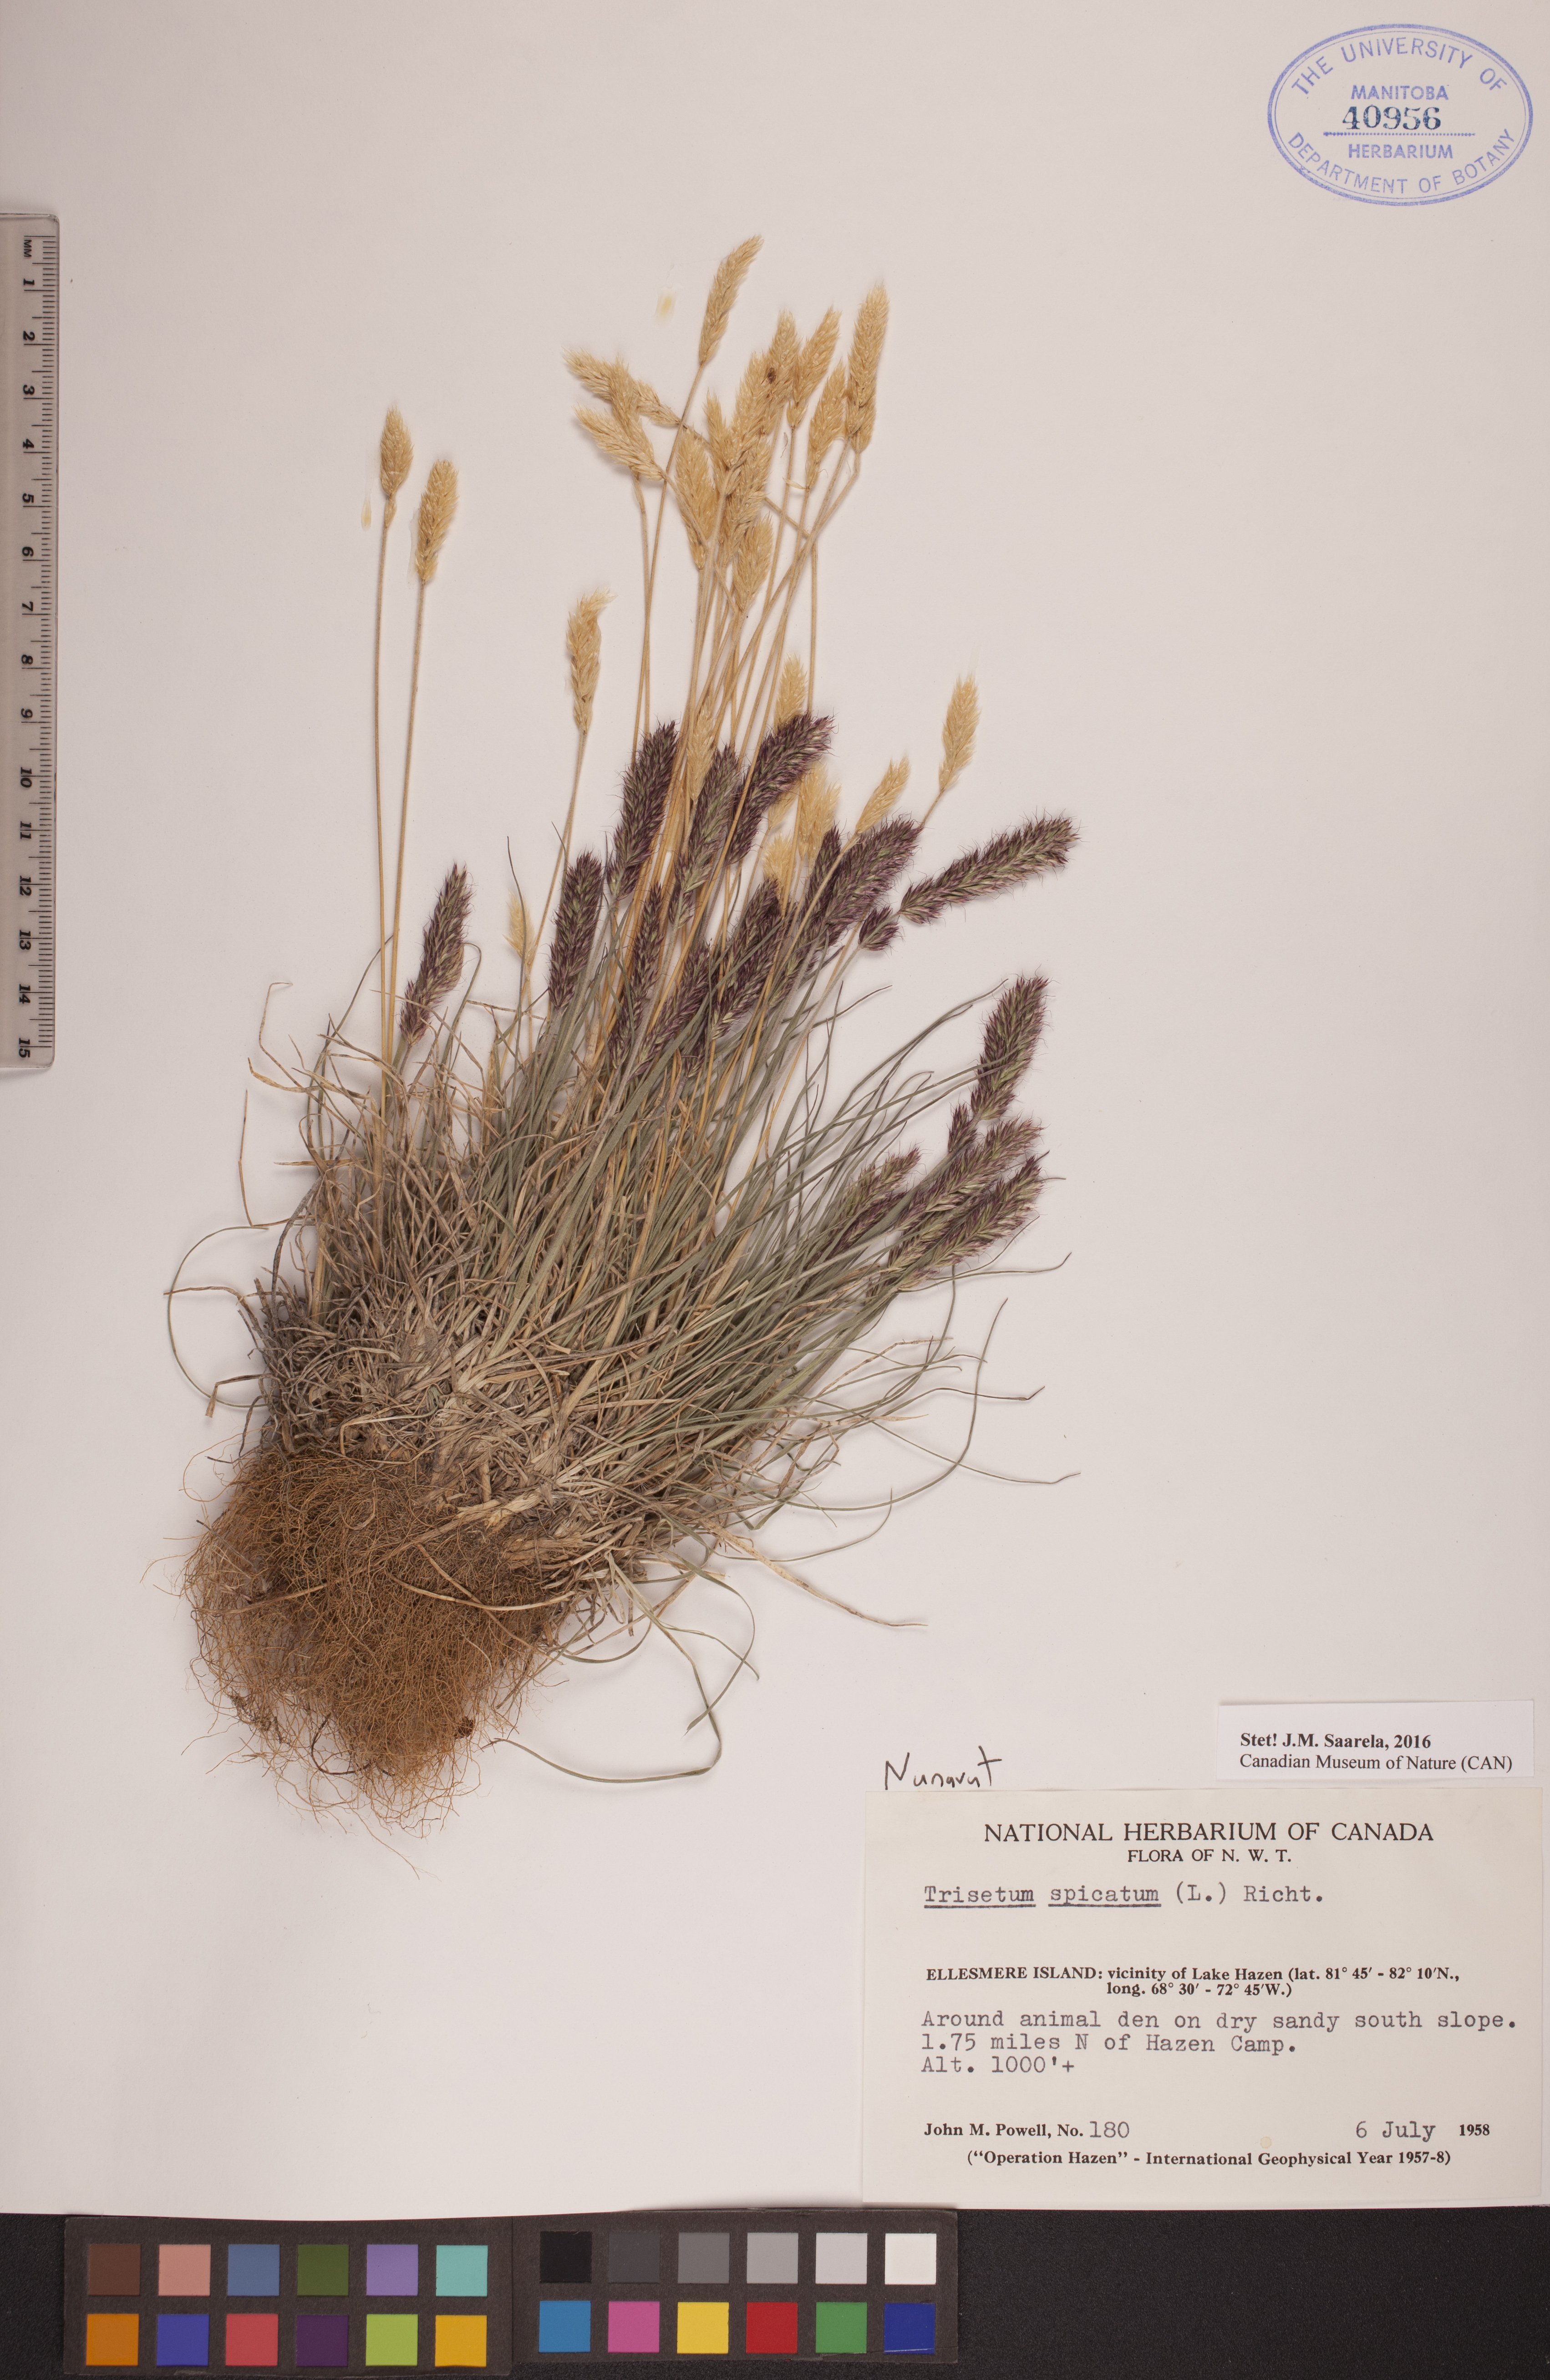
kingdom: Plantae
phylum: Tracheophyta
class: Liliopsida
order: Poales
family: Poaceae
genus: Koeleria
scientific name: Koeleria spicata
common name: Mountain trisetum
